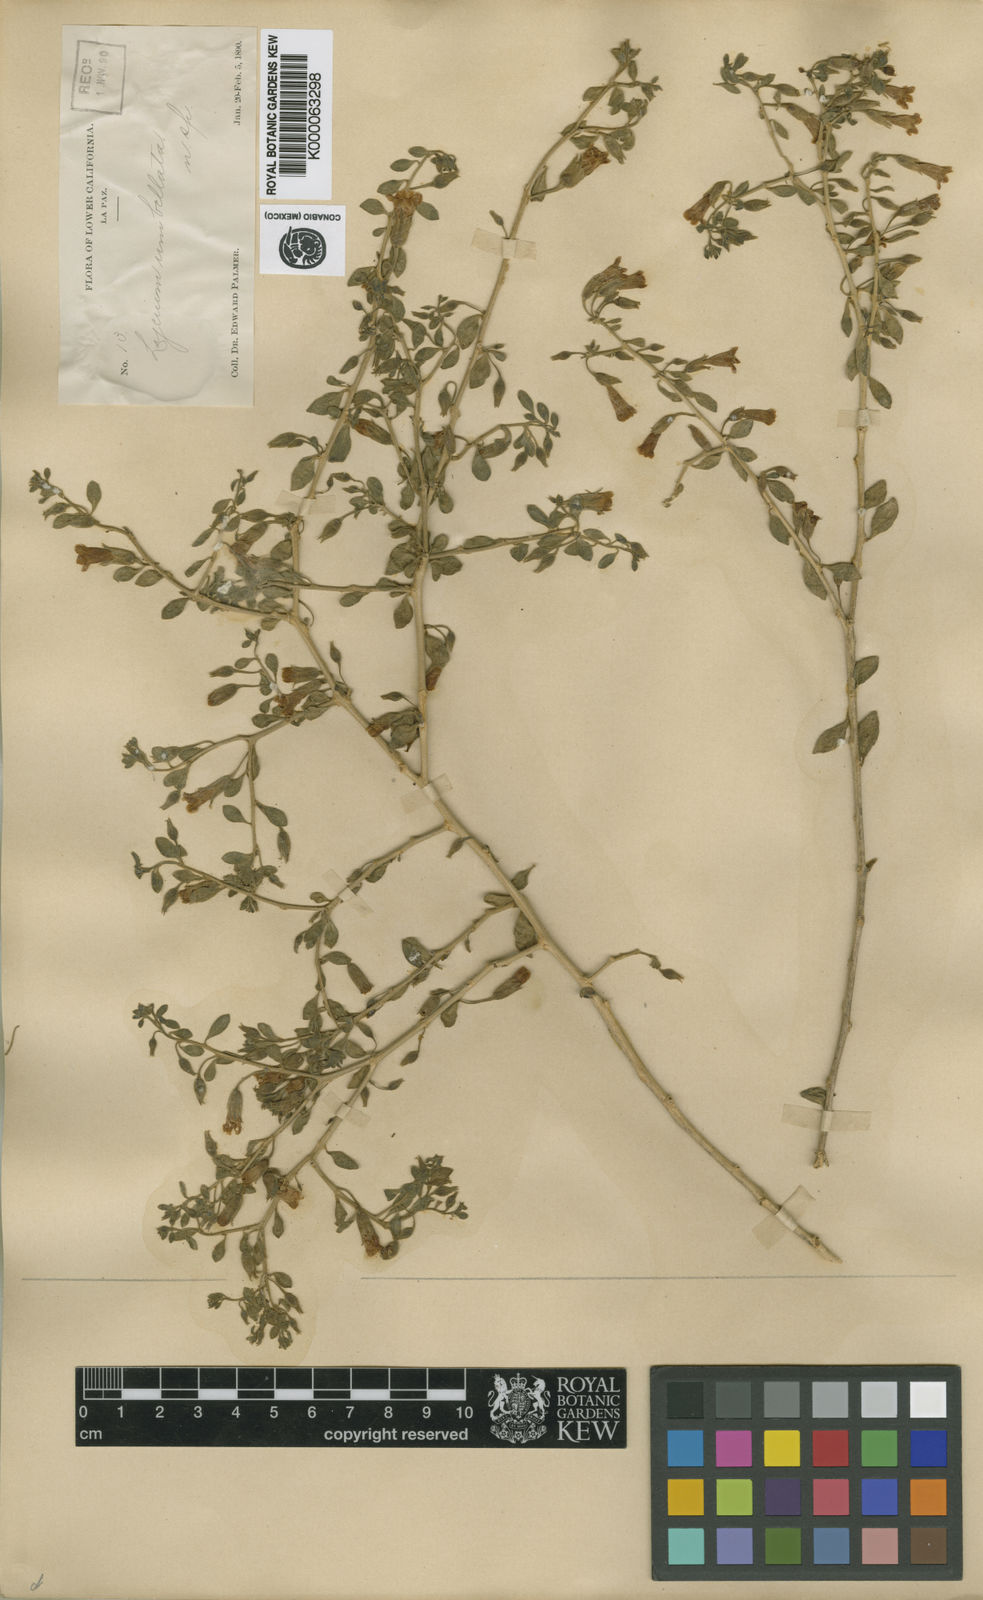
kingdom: Plantae
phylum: Tracheophyta
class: Magnoliopsida
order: Solanales
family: Solanaceae
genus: Lycium
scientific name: Lycium fremontii
